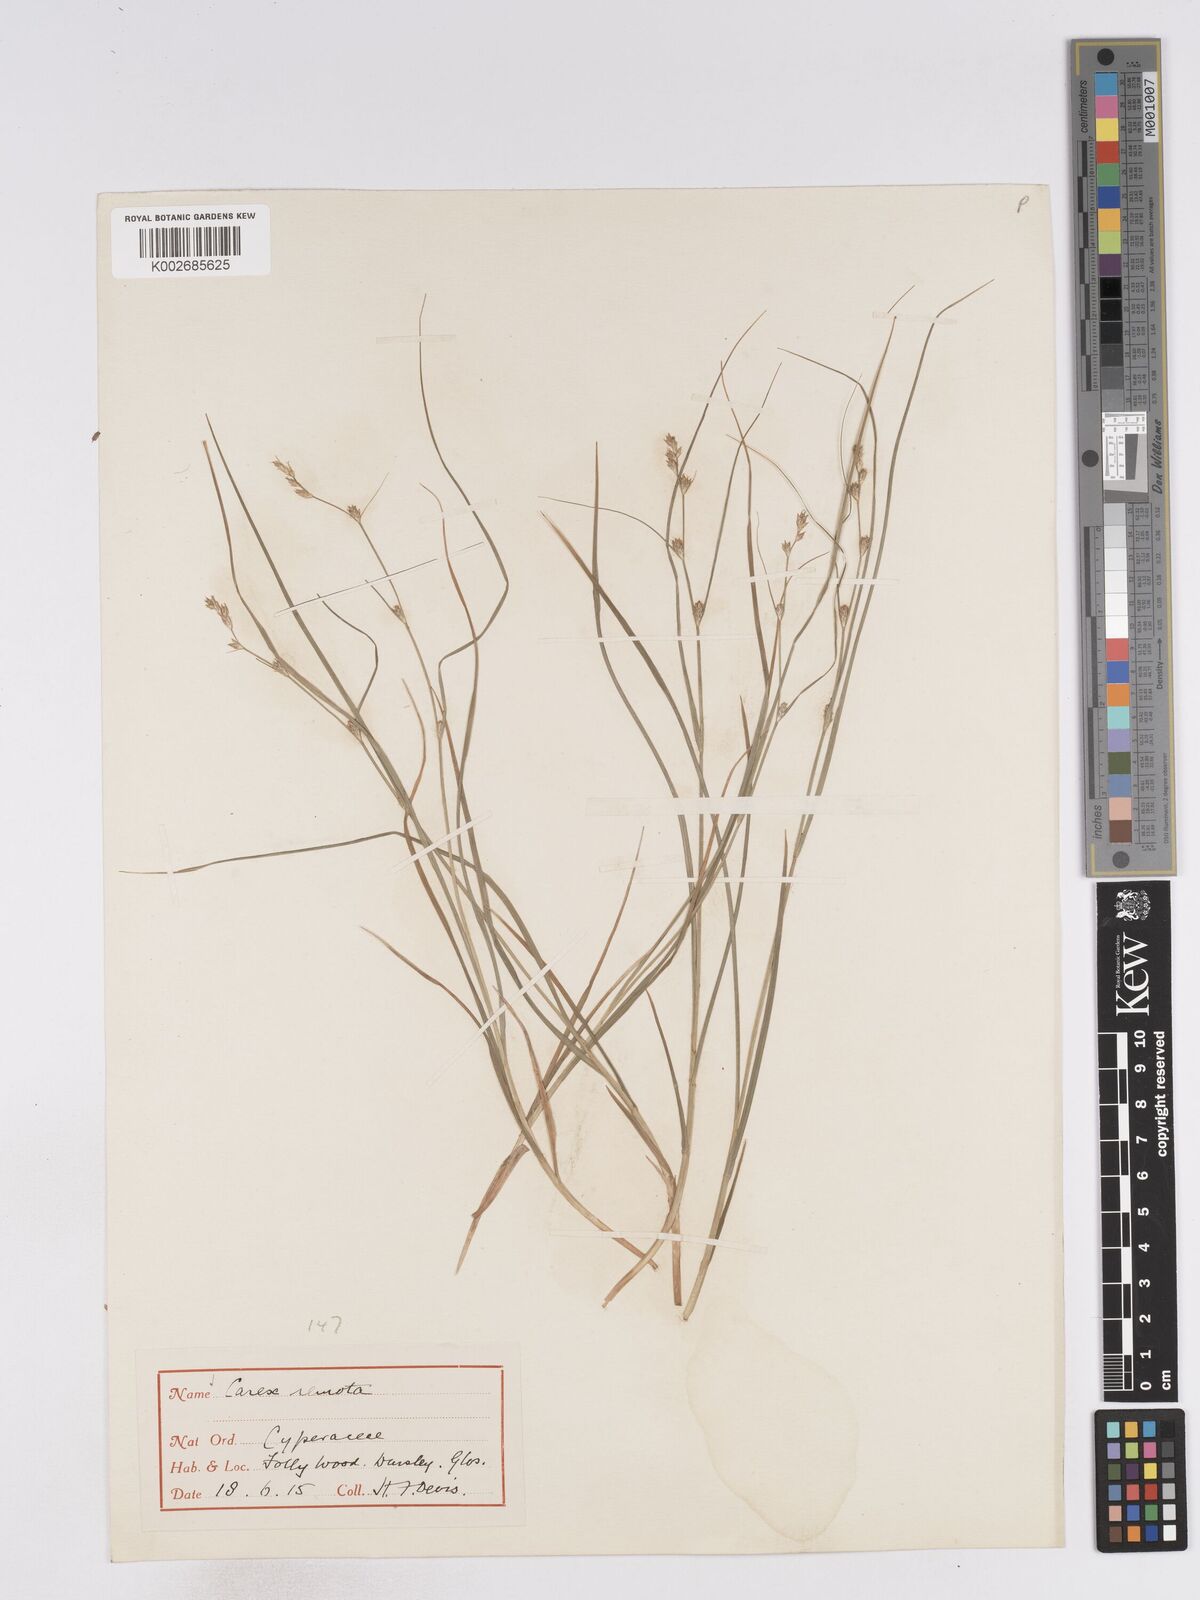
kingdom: Plantae
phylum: Tracheophyta
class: Liliopsida
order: Poales
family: Cyperaceae
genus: Carex
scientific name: Carex remota
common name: Remote sedge
